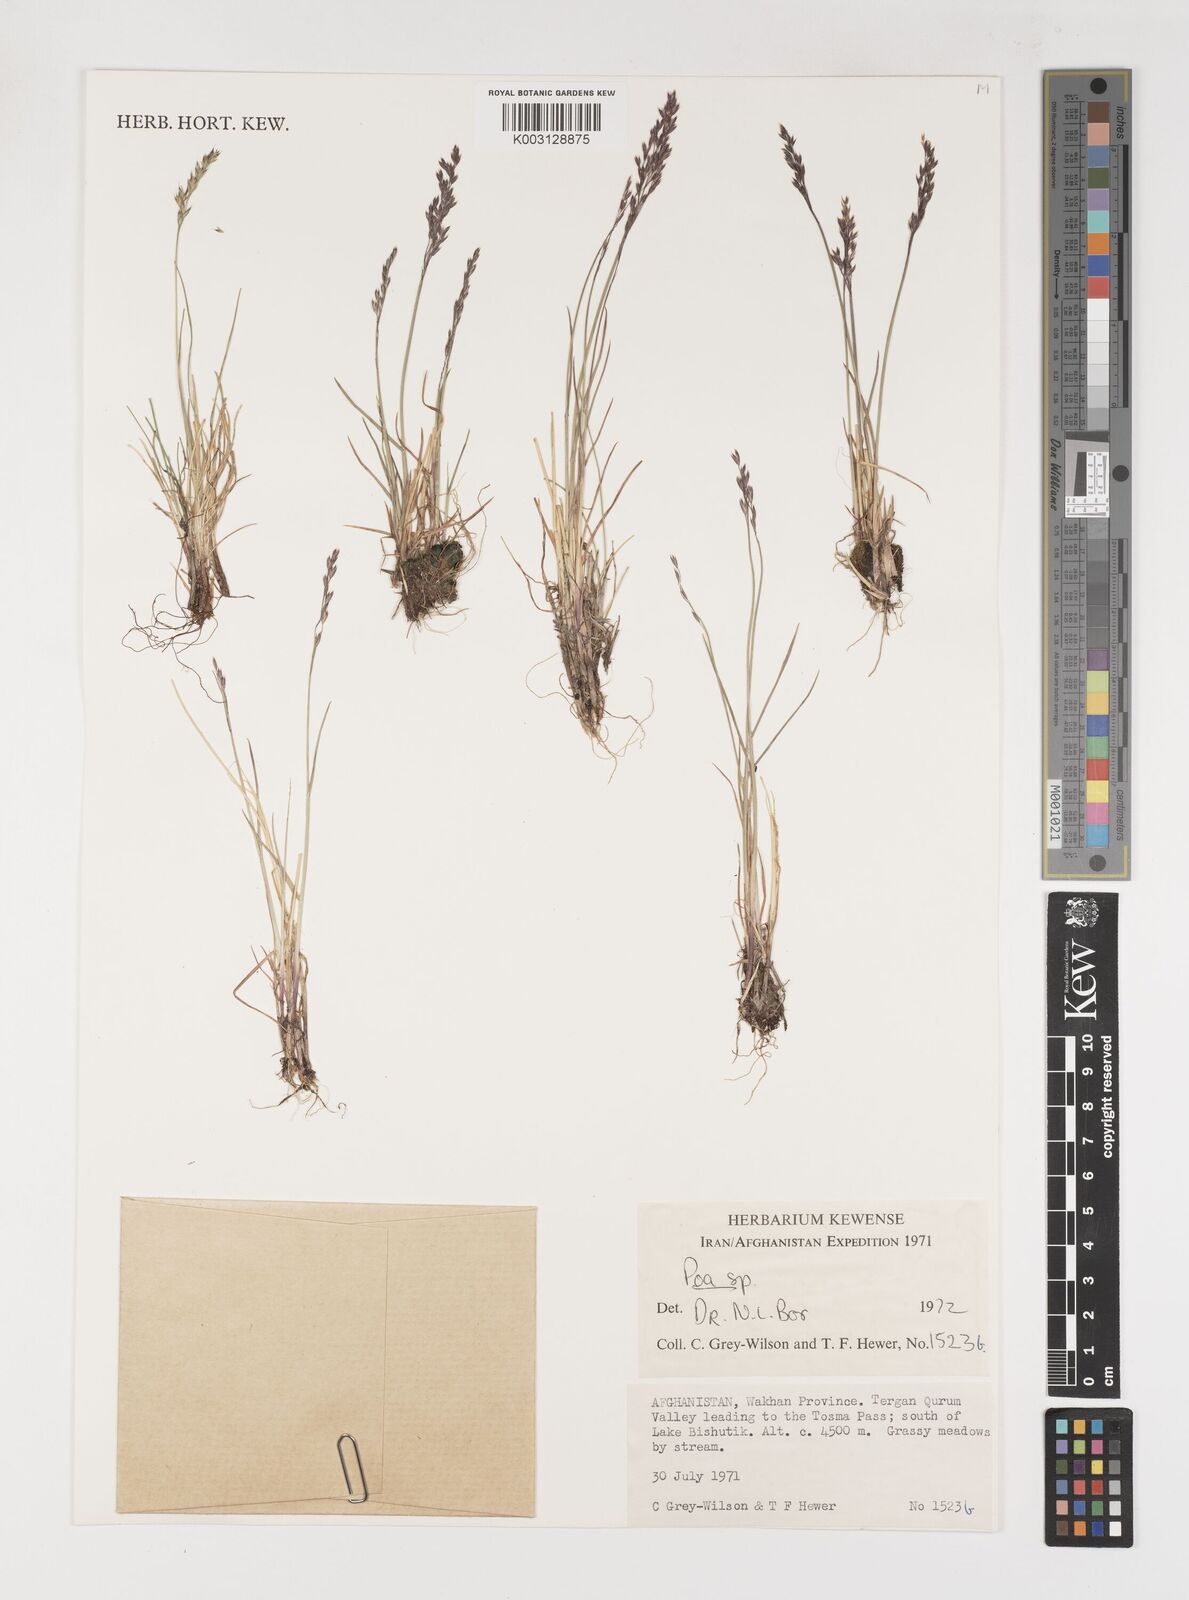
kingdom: Plantae
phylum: Tracheophyta
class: Liliopsida
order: Poales
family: Poaceae
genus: Poa
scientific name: Poa
